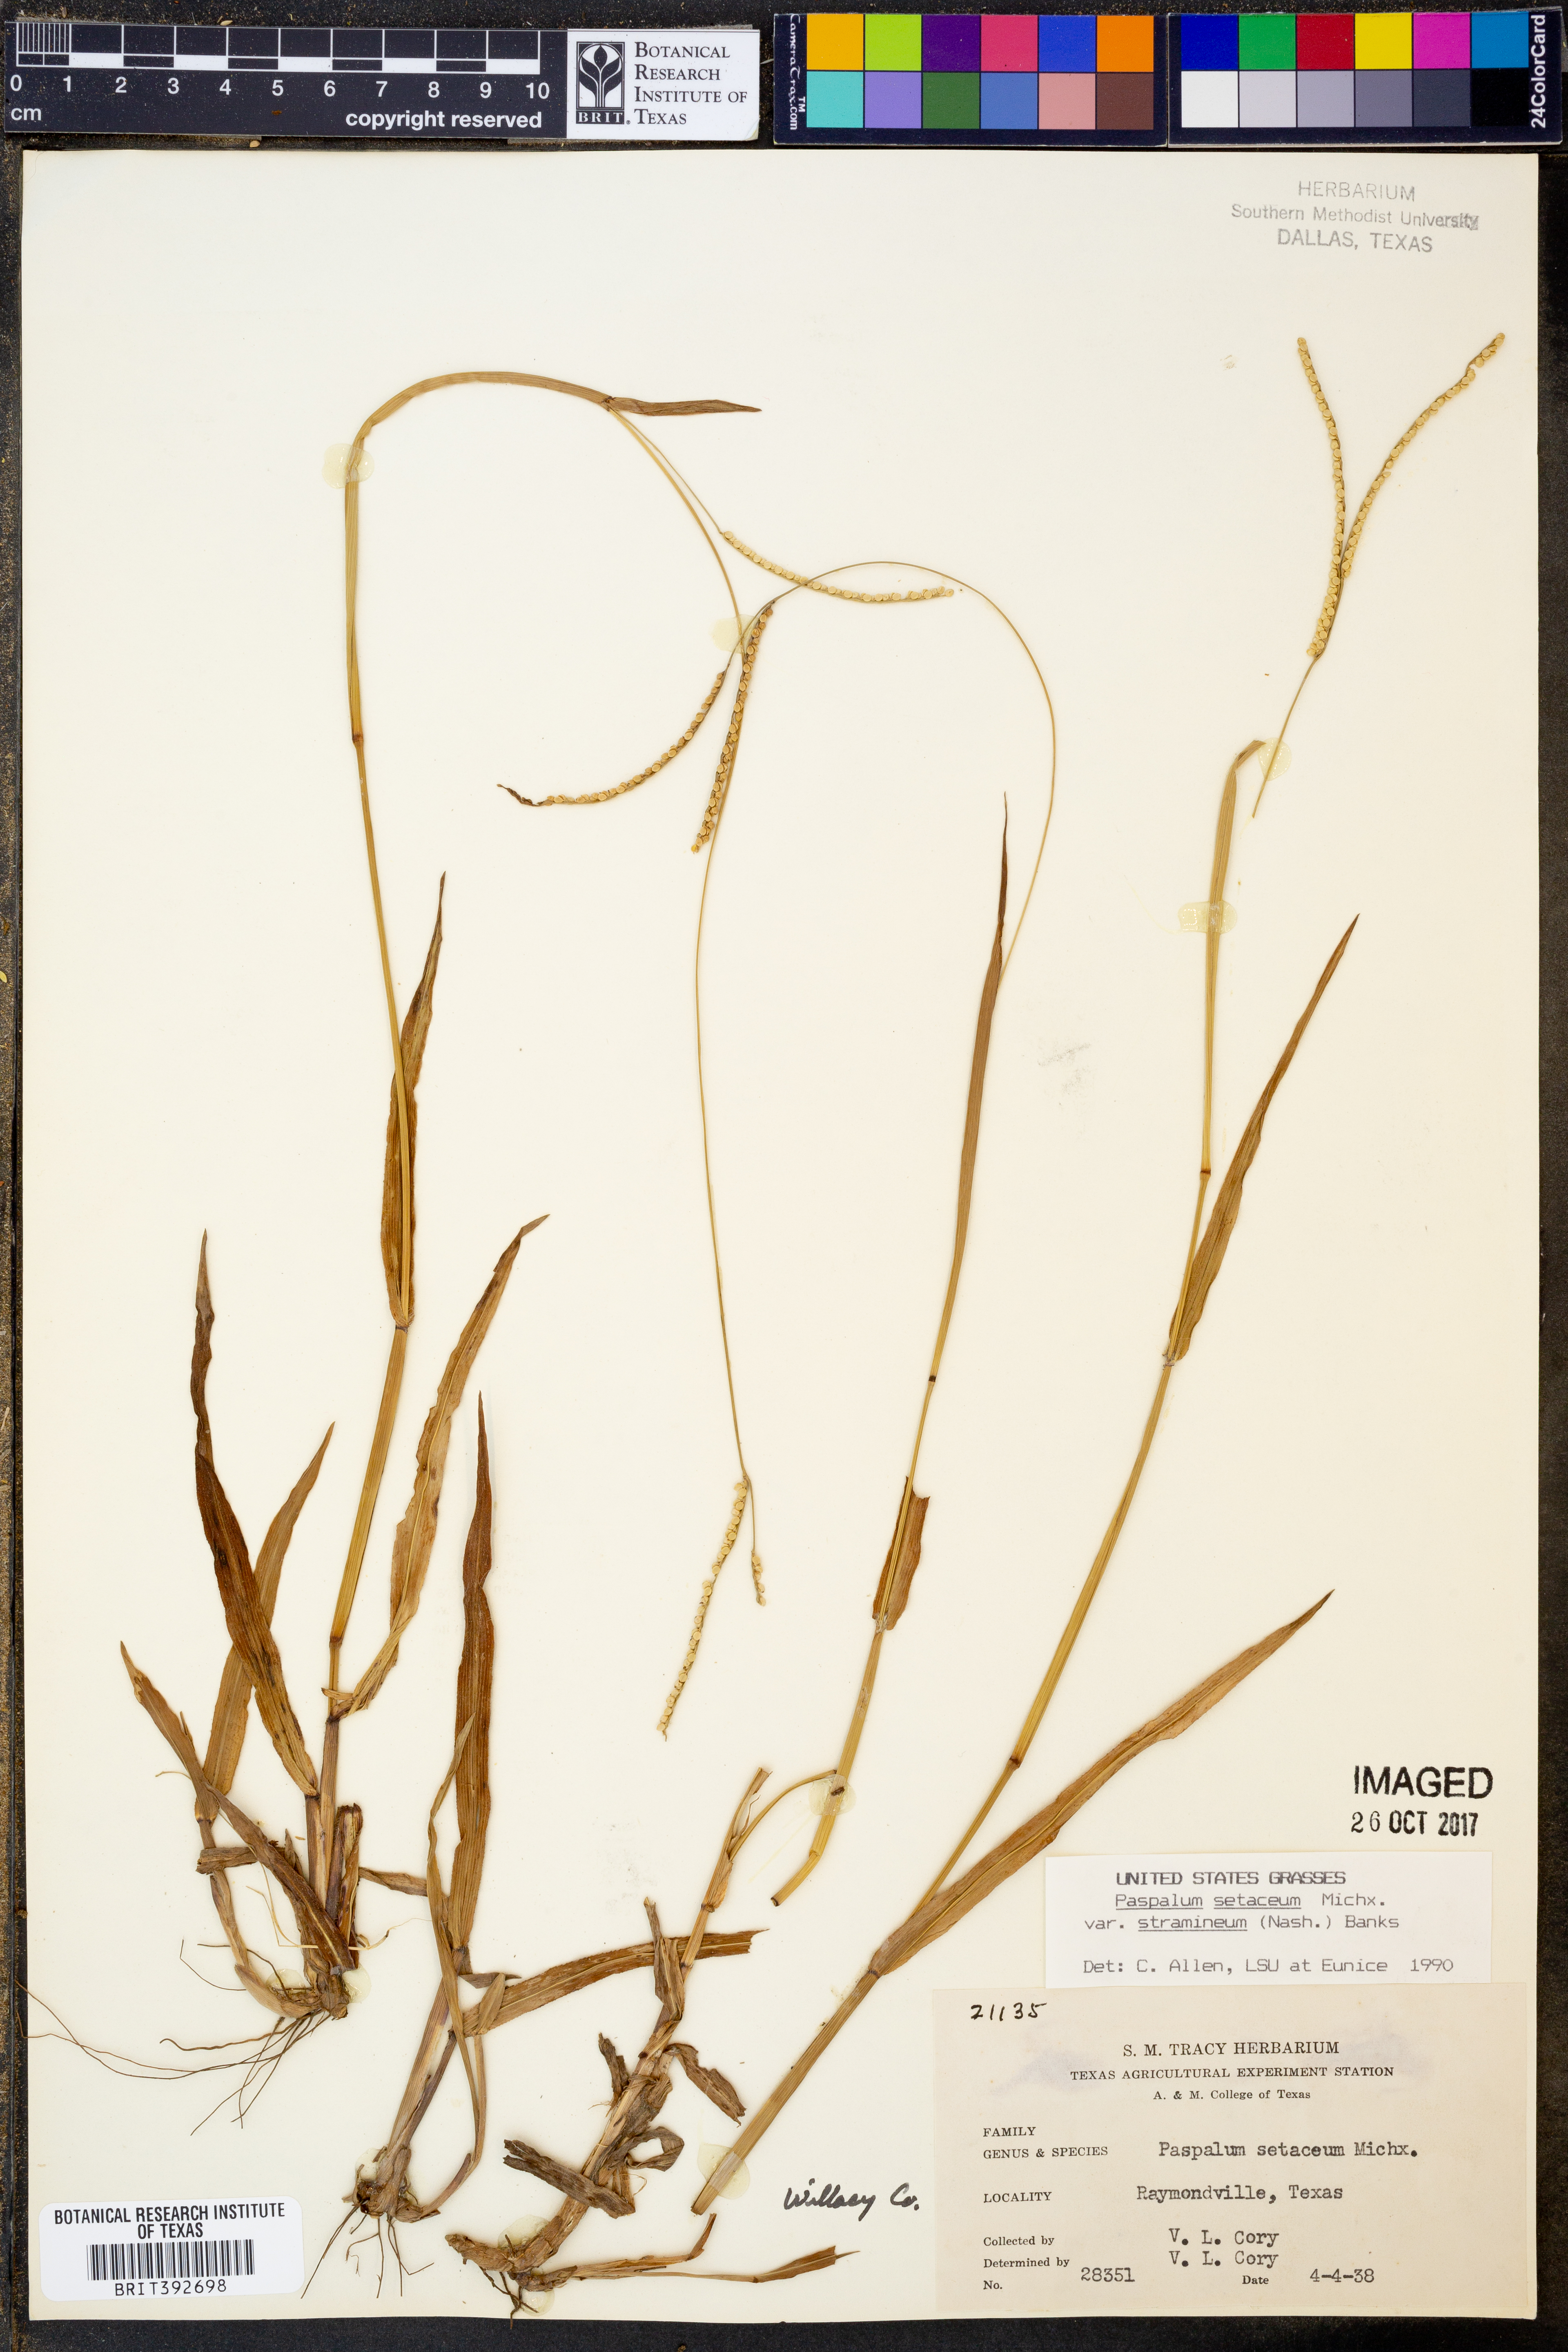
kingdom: Plantae
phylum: Tracheophyta
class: Liliopsida
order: Poales
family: Poaceae
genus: Paspalum
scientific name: Paspalum setaceum
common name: Slender paspalum
